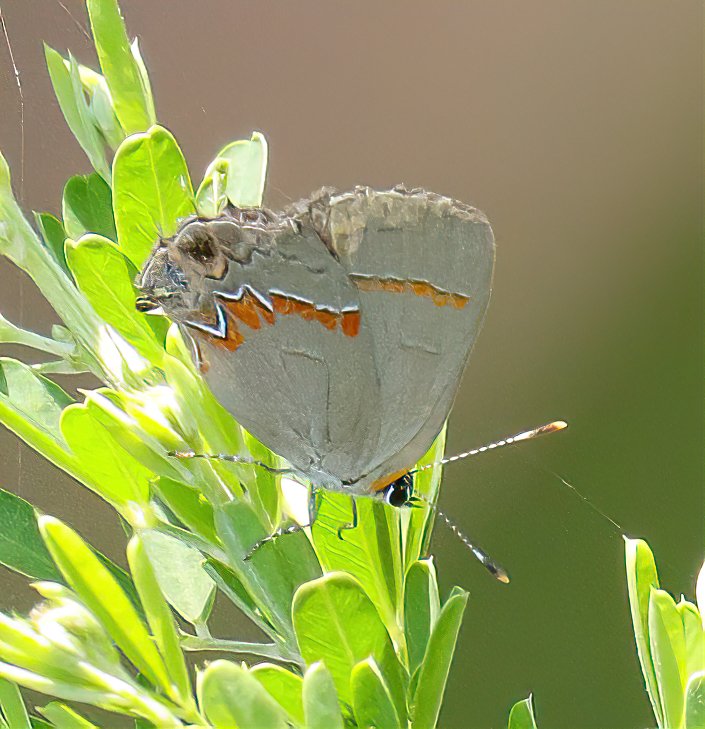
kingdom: Animalia
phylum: Arthropoda
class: Insecta
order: Lepidoptera
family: Lycaenidae
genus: Calycopis
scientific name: Calycopis cecrops
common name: Red-banded Hairstreak
